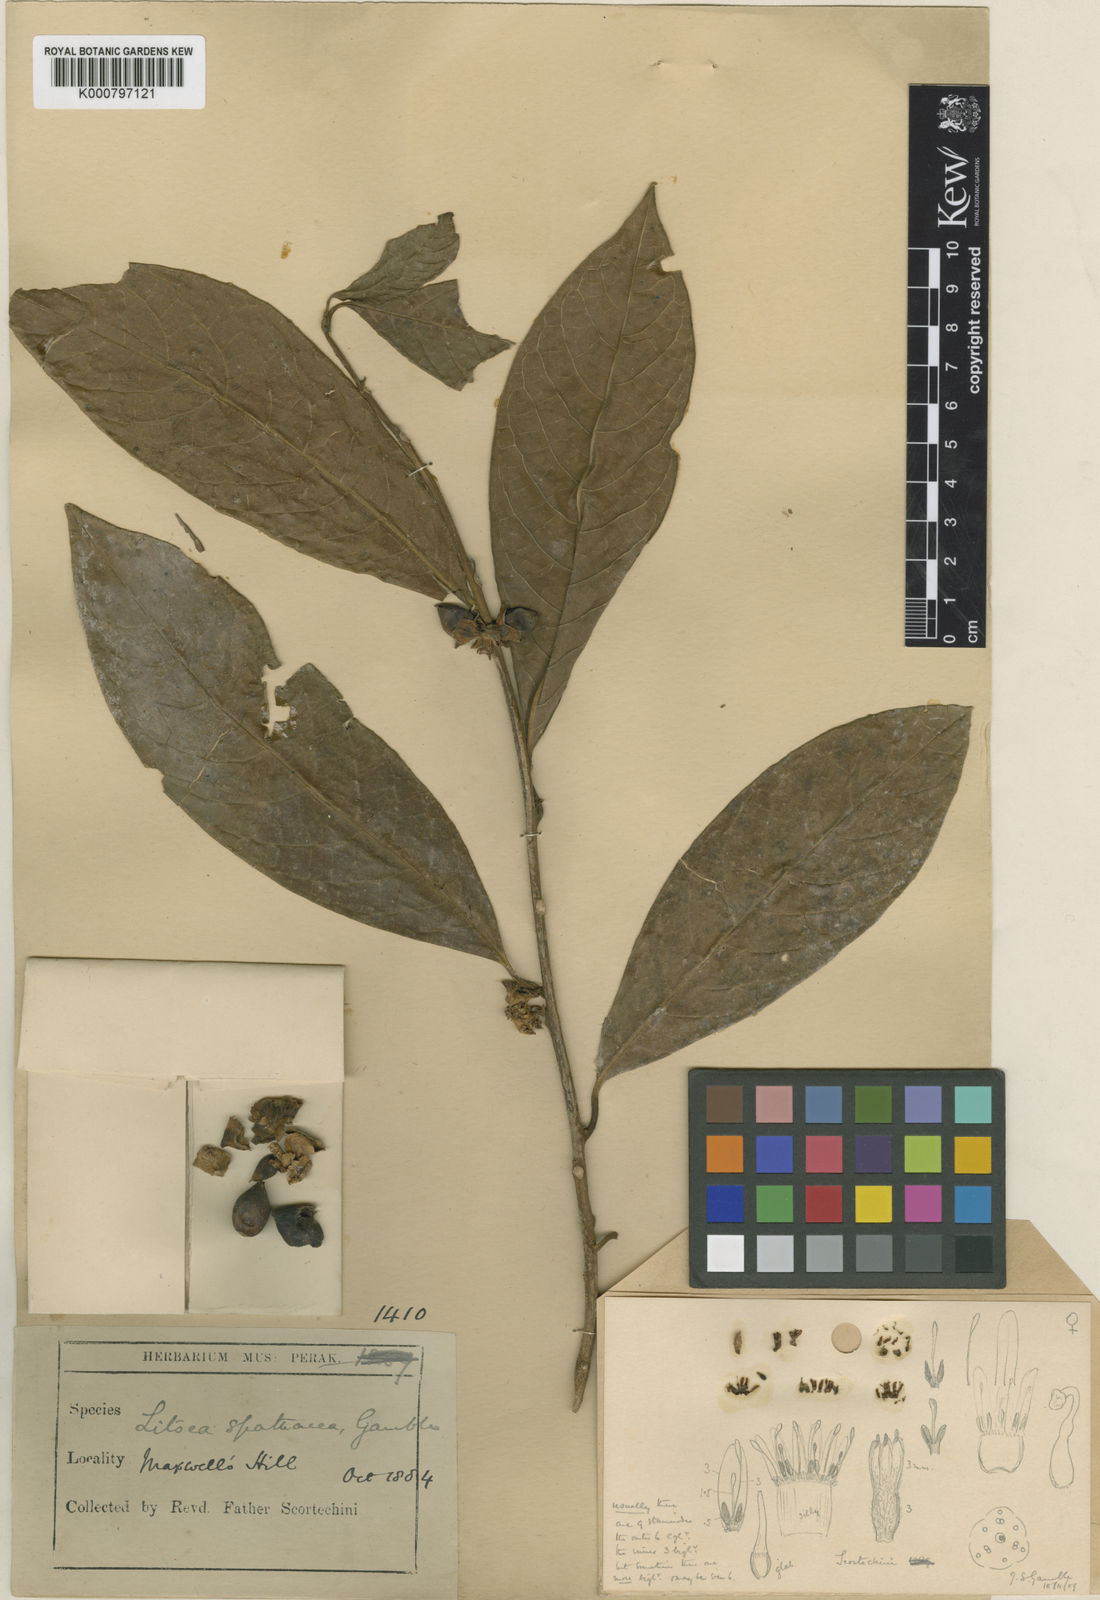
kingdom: Plantae
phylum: Tracheophyta
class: Magnoliopsida
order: Laurales
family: Lauraceae
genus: Litsea
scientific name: Litsea spathacea
